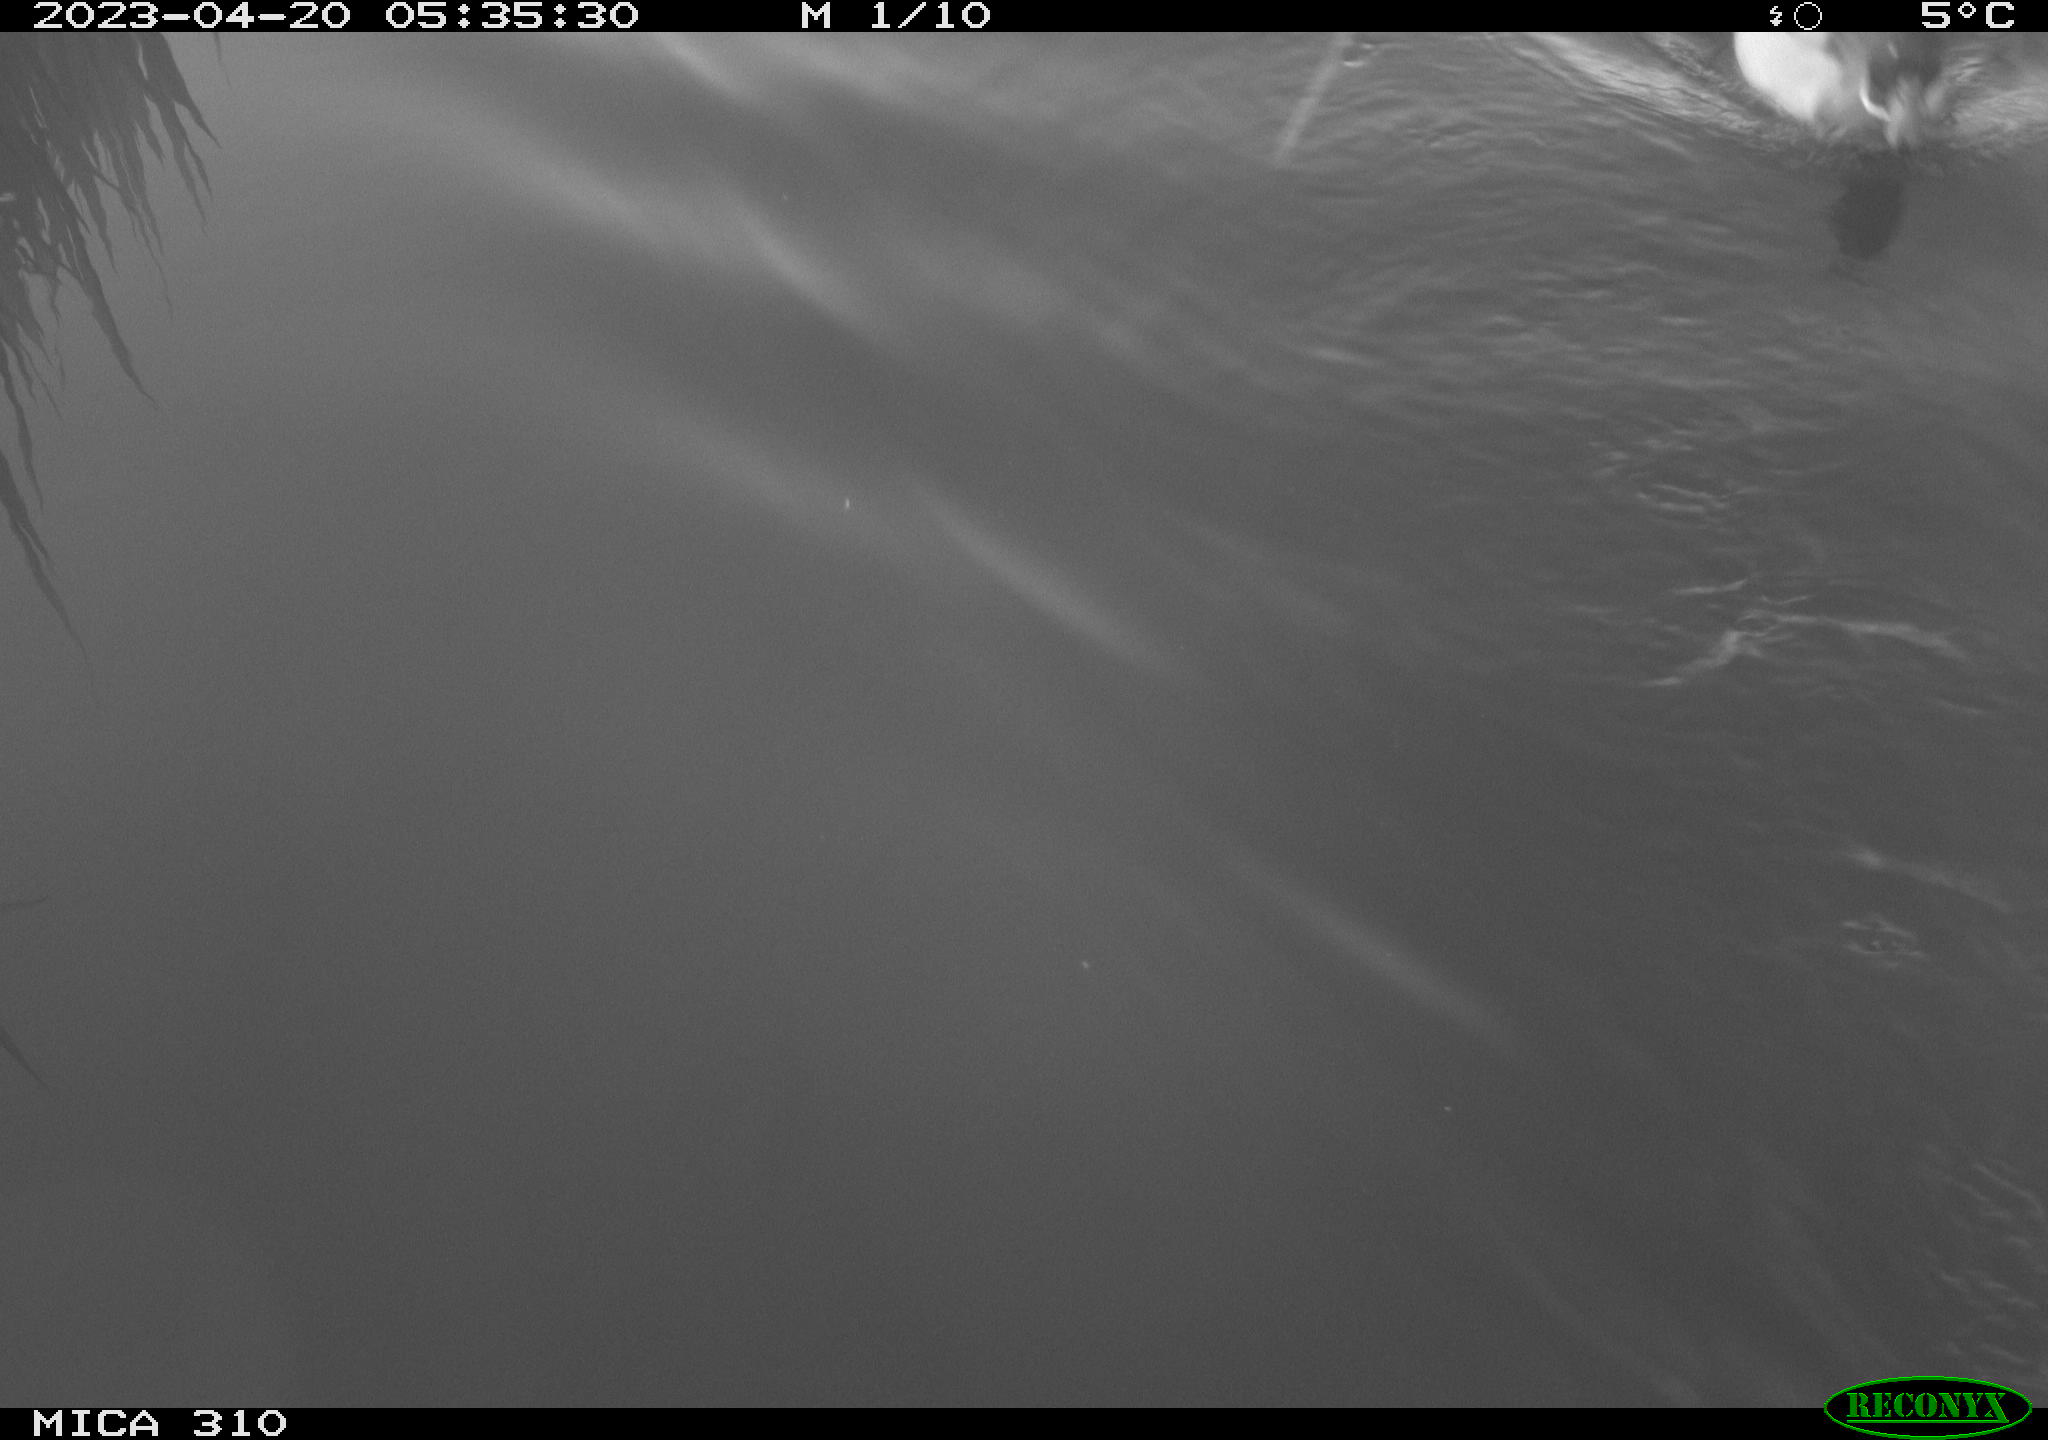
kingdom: Animalia
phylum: Chordata
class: Aves
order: Anseriformes
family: Anatidae
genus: Anas
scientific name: Anas platyrhynchos
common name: Mallard
